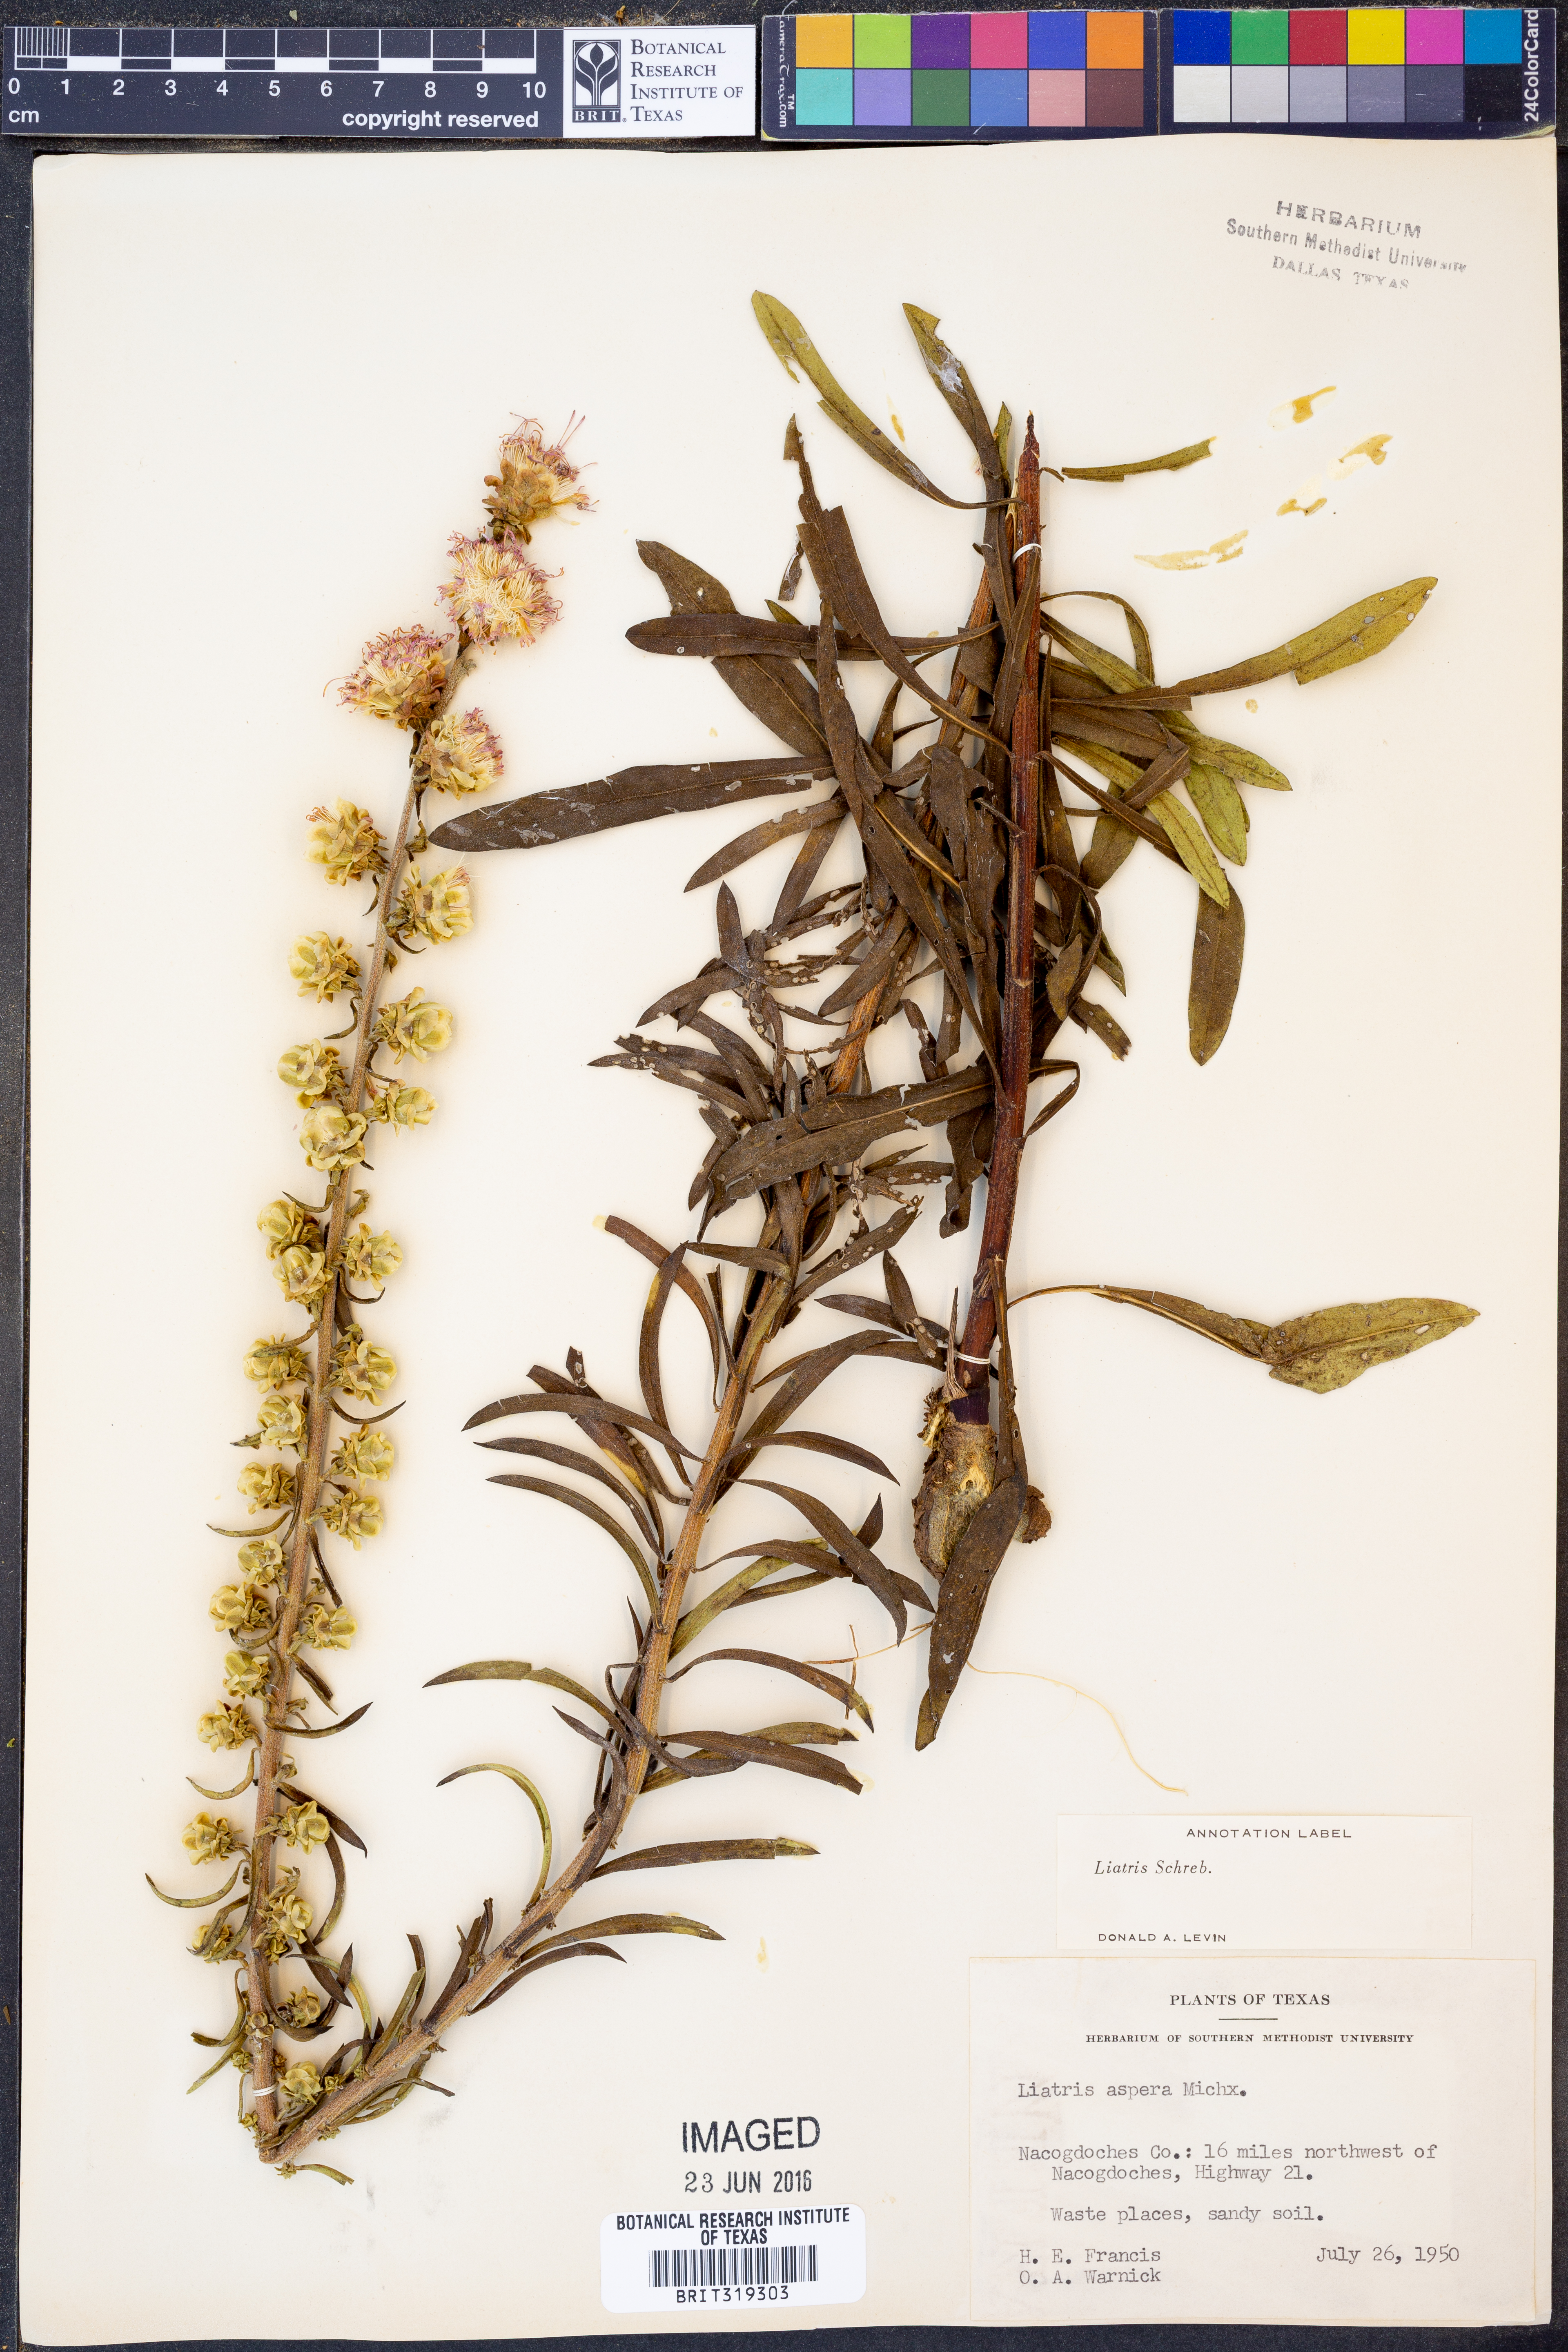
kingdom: Plantae
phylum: Tracheophyta
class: Magnoliopsida
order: Asterales
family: Asteraceae
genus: Liatris
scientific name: Liatris
